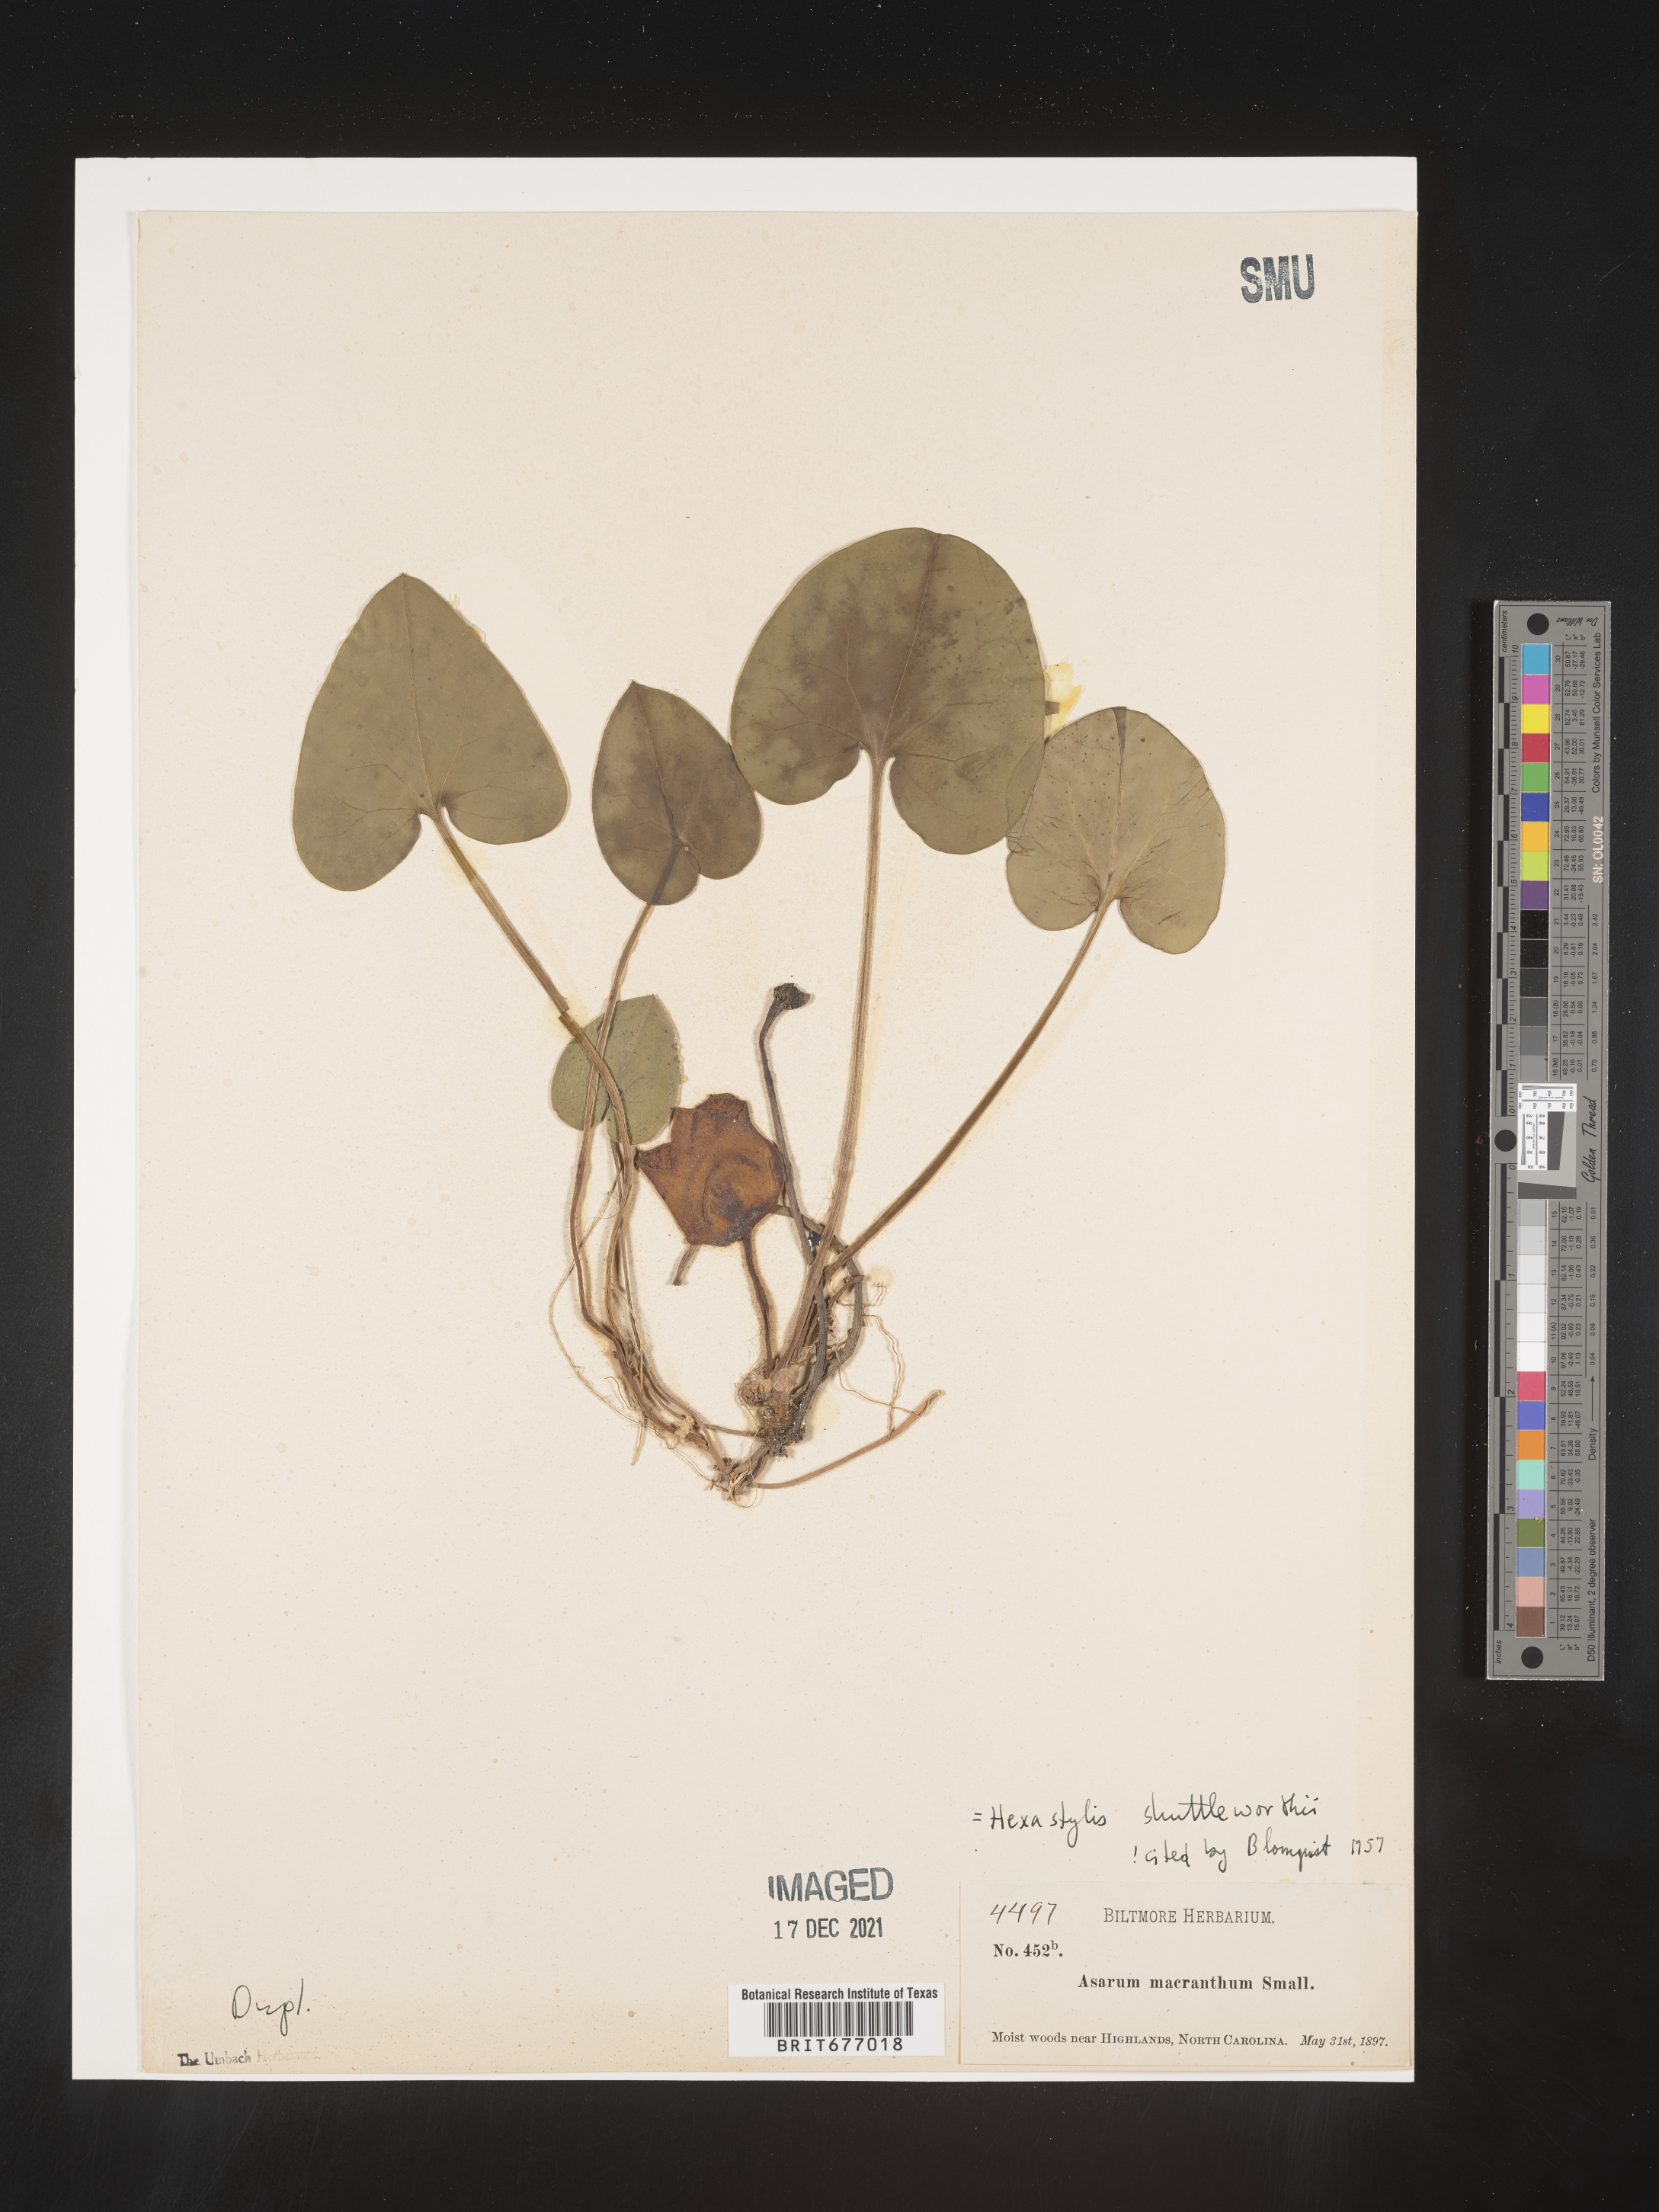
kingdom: Plantae
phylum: Tracheophyta
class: Magnoliopsida
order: Piperales
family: Aristolochiaceae
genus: Asarum
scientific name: Asarum
